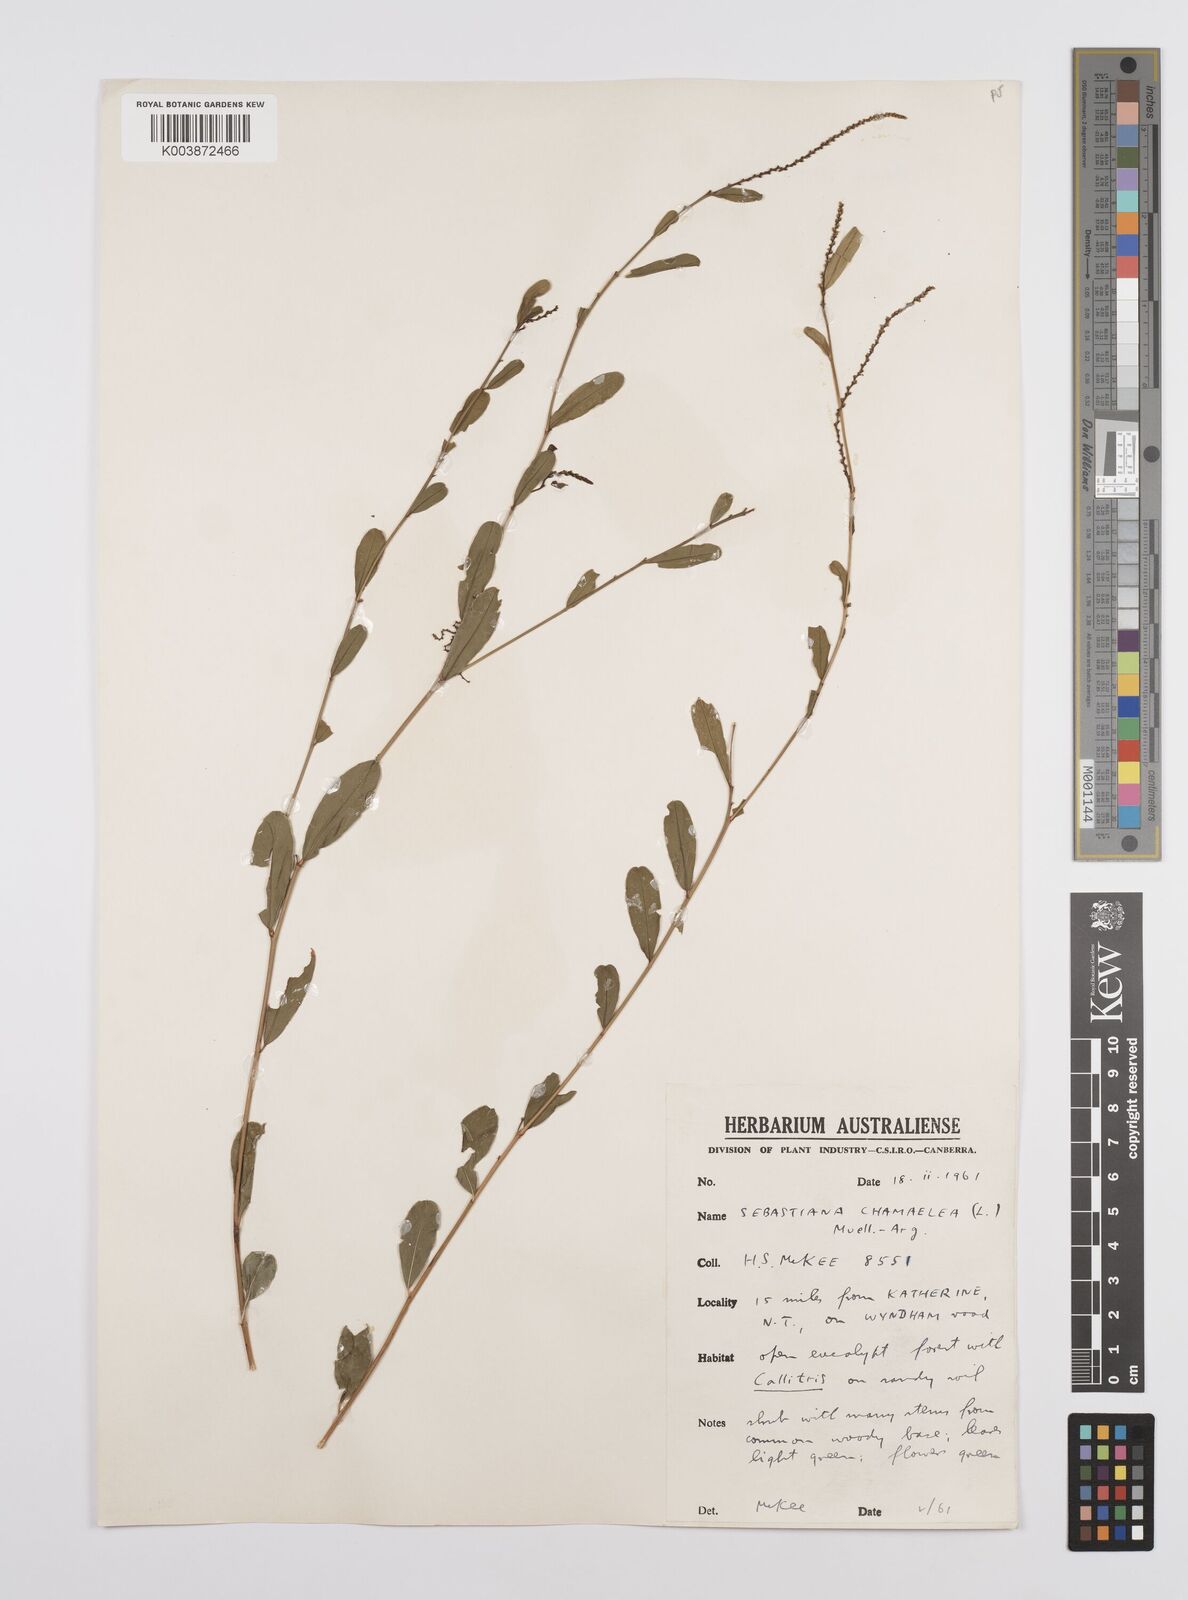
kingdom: Plantae
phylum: Tracheophyta
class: Magnoliopsida
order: Malpighiales
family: Euphorbiaceae
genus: Microstachys
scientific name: Microstachys chamaelea
